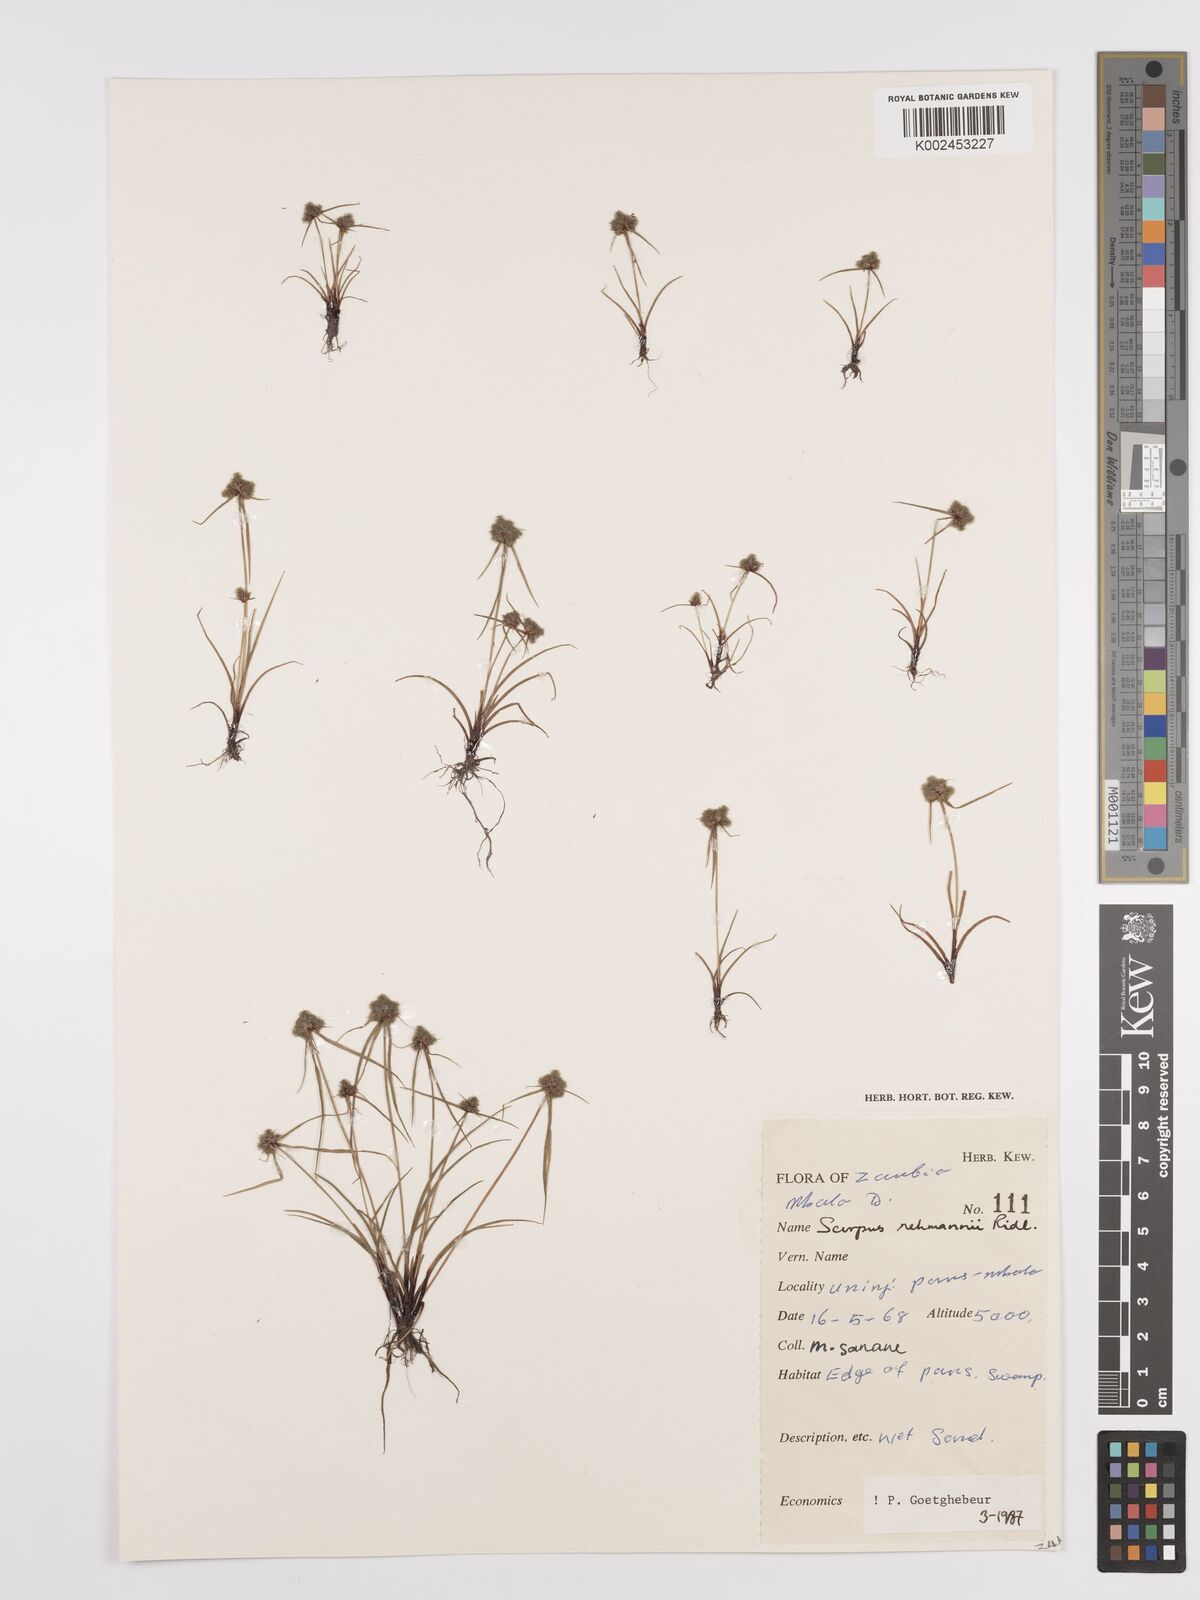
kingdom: Plantae
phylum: Tracheophyta
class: Liliopsida
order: Poales
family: Cyperaceae
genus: Cyperus
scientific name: Cyperus sanguinolentus
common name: Purpleglume flatsedge
